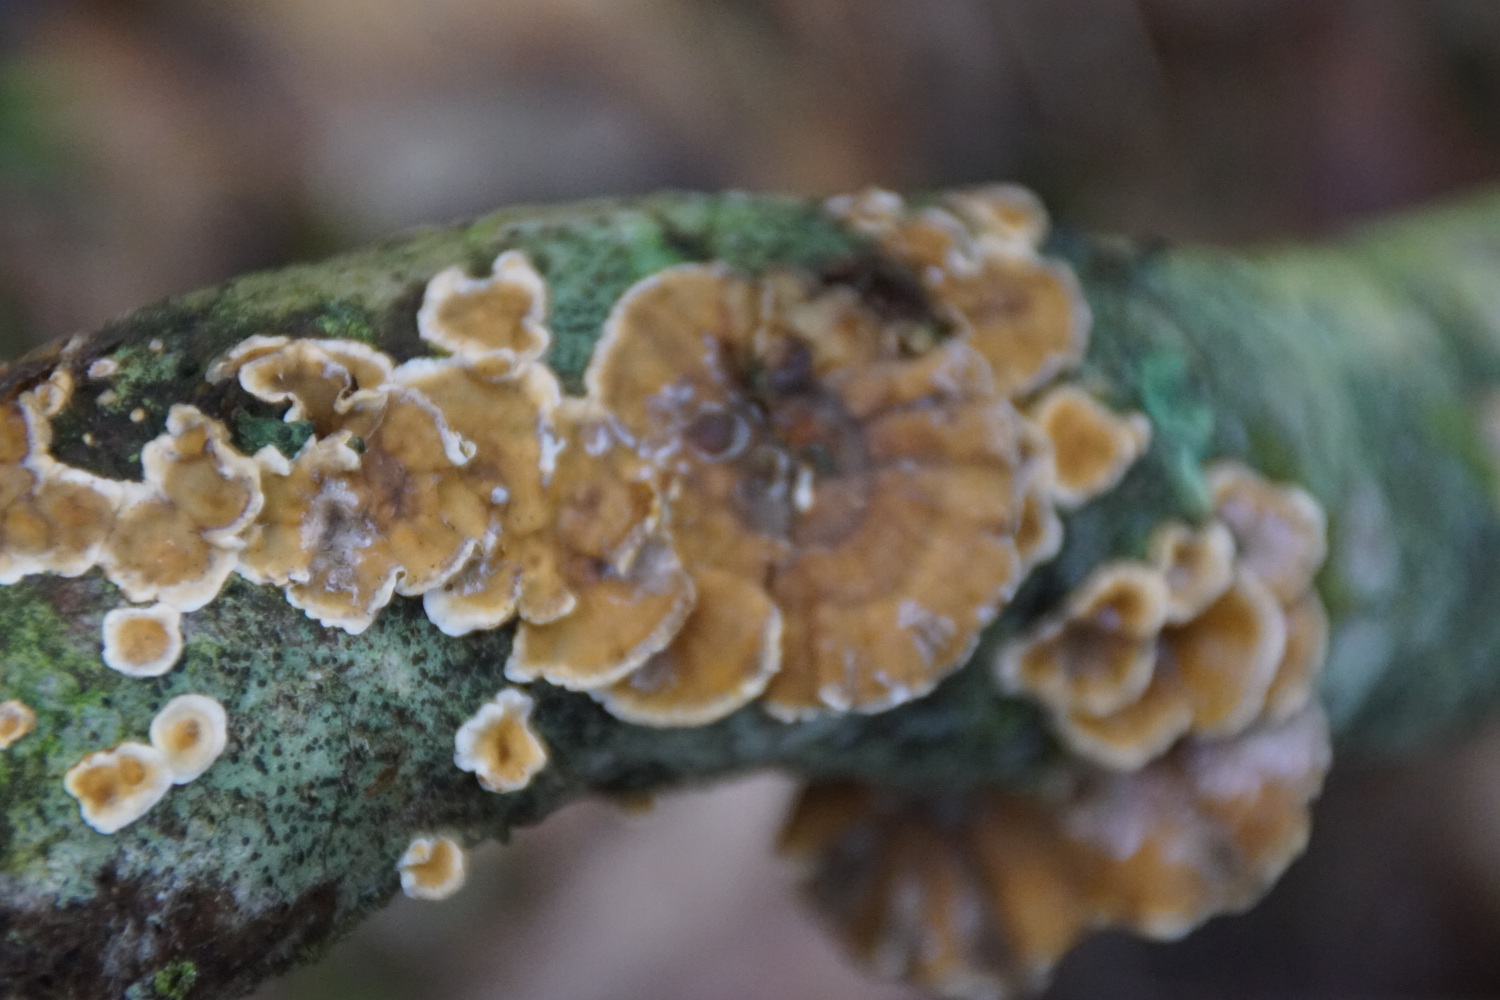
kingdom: Fungi
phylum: Basidiomycota
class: Agaricomycetes
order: Russulales
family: Stereaceae
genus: Stereum
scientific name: Stereum hirsutum
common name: håret lædersvamp
